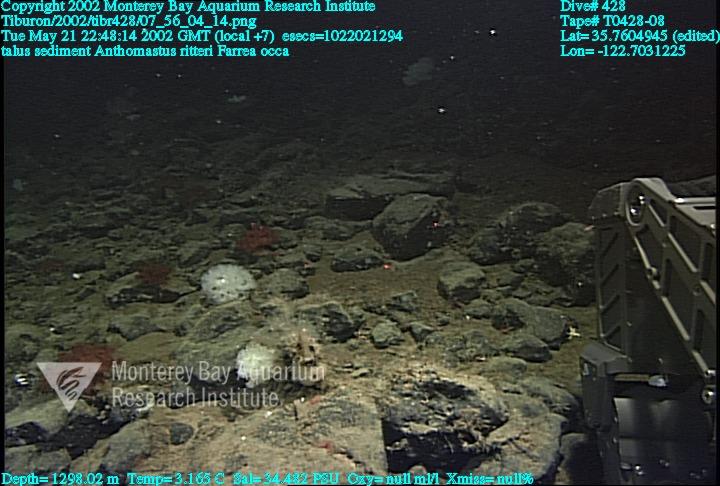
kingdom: Animalia
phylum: Porifera
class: Hexactinellida
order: Sceptrulophora
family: Farreidae
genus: Farrea
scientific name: Farrea occa
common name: Reversed glass sponge
